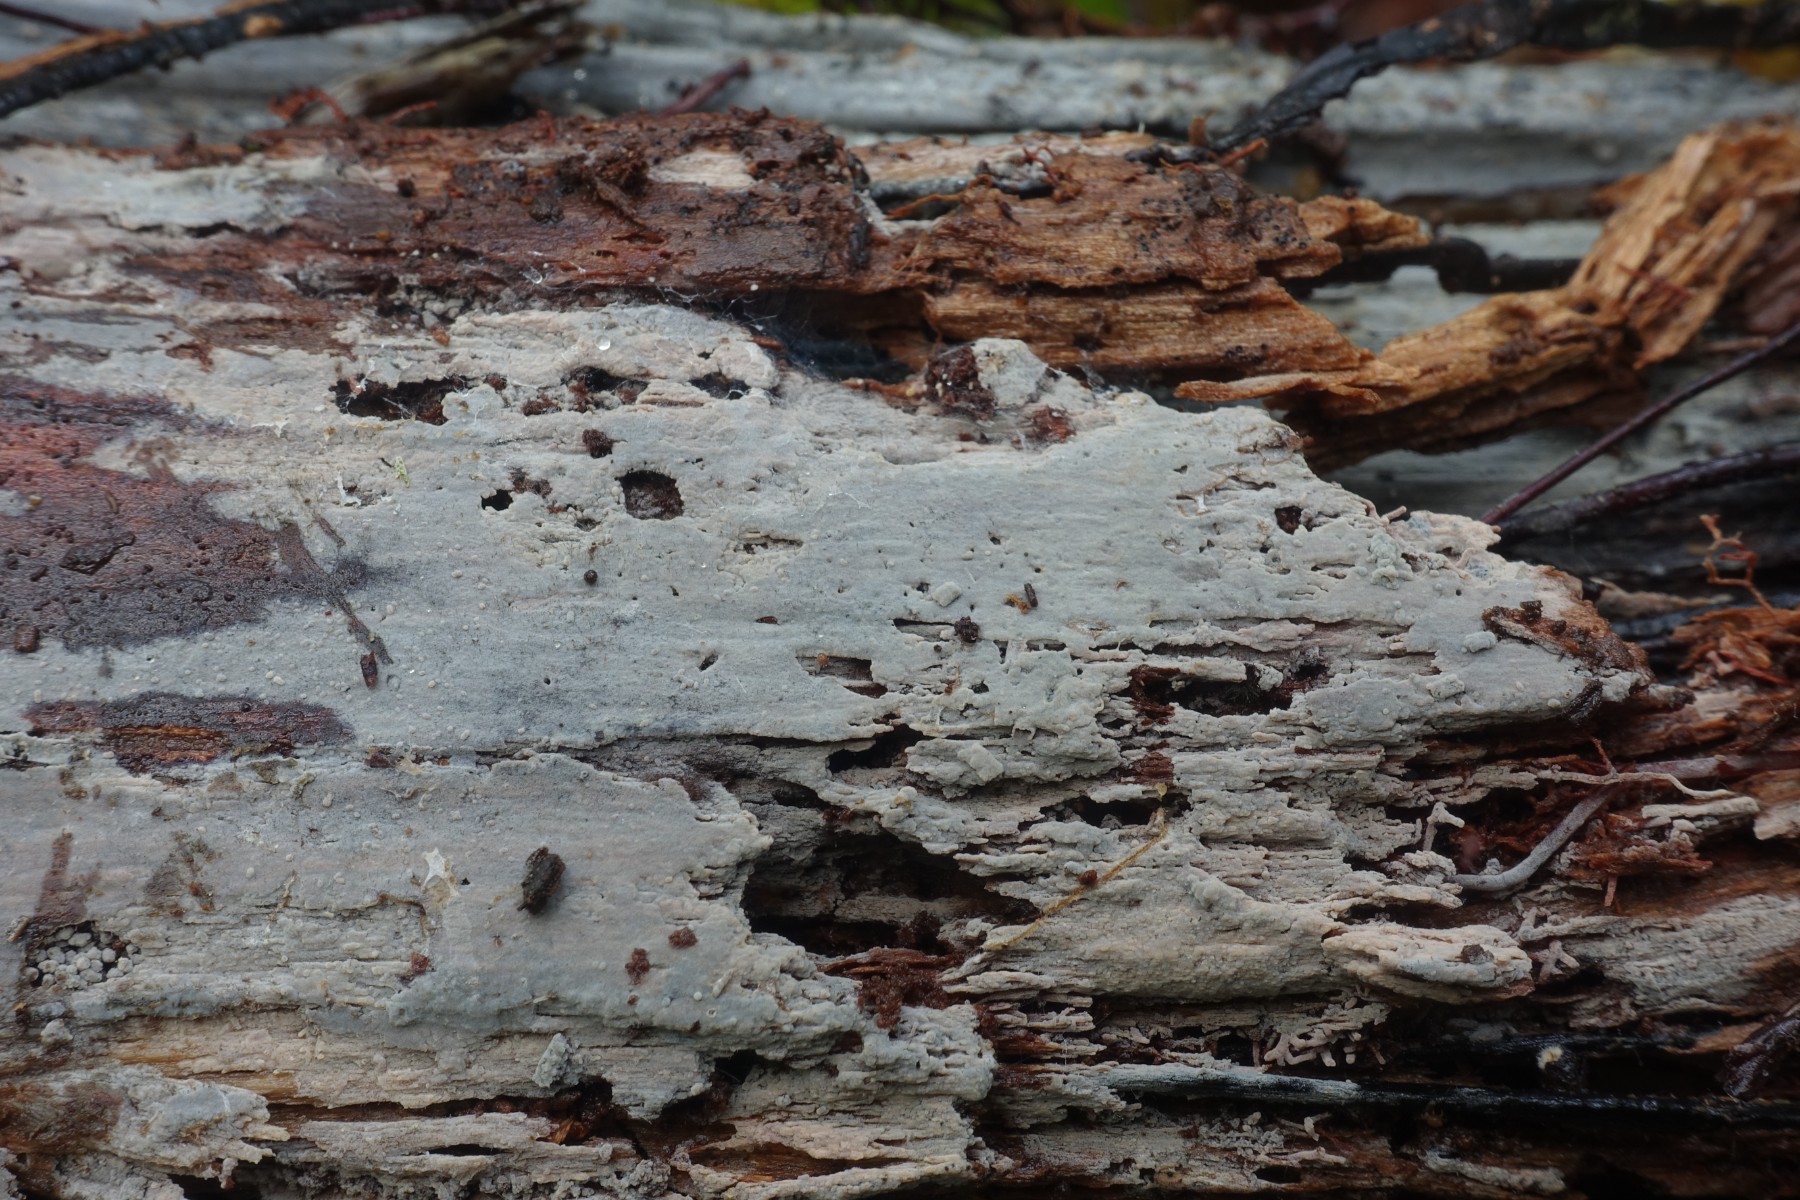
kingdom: Fungi
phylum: Basidiomycota
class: Agaricomycetes
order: Trechisporales
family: Hydnodontaceae
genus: Subulicystidium
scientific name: Subulicystidium longisporum
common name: almindelig pigtrådshinde
